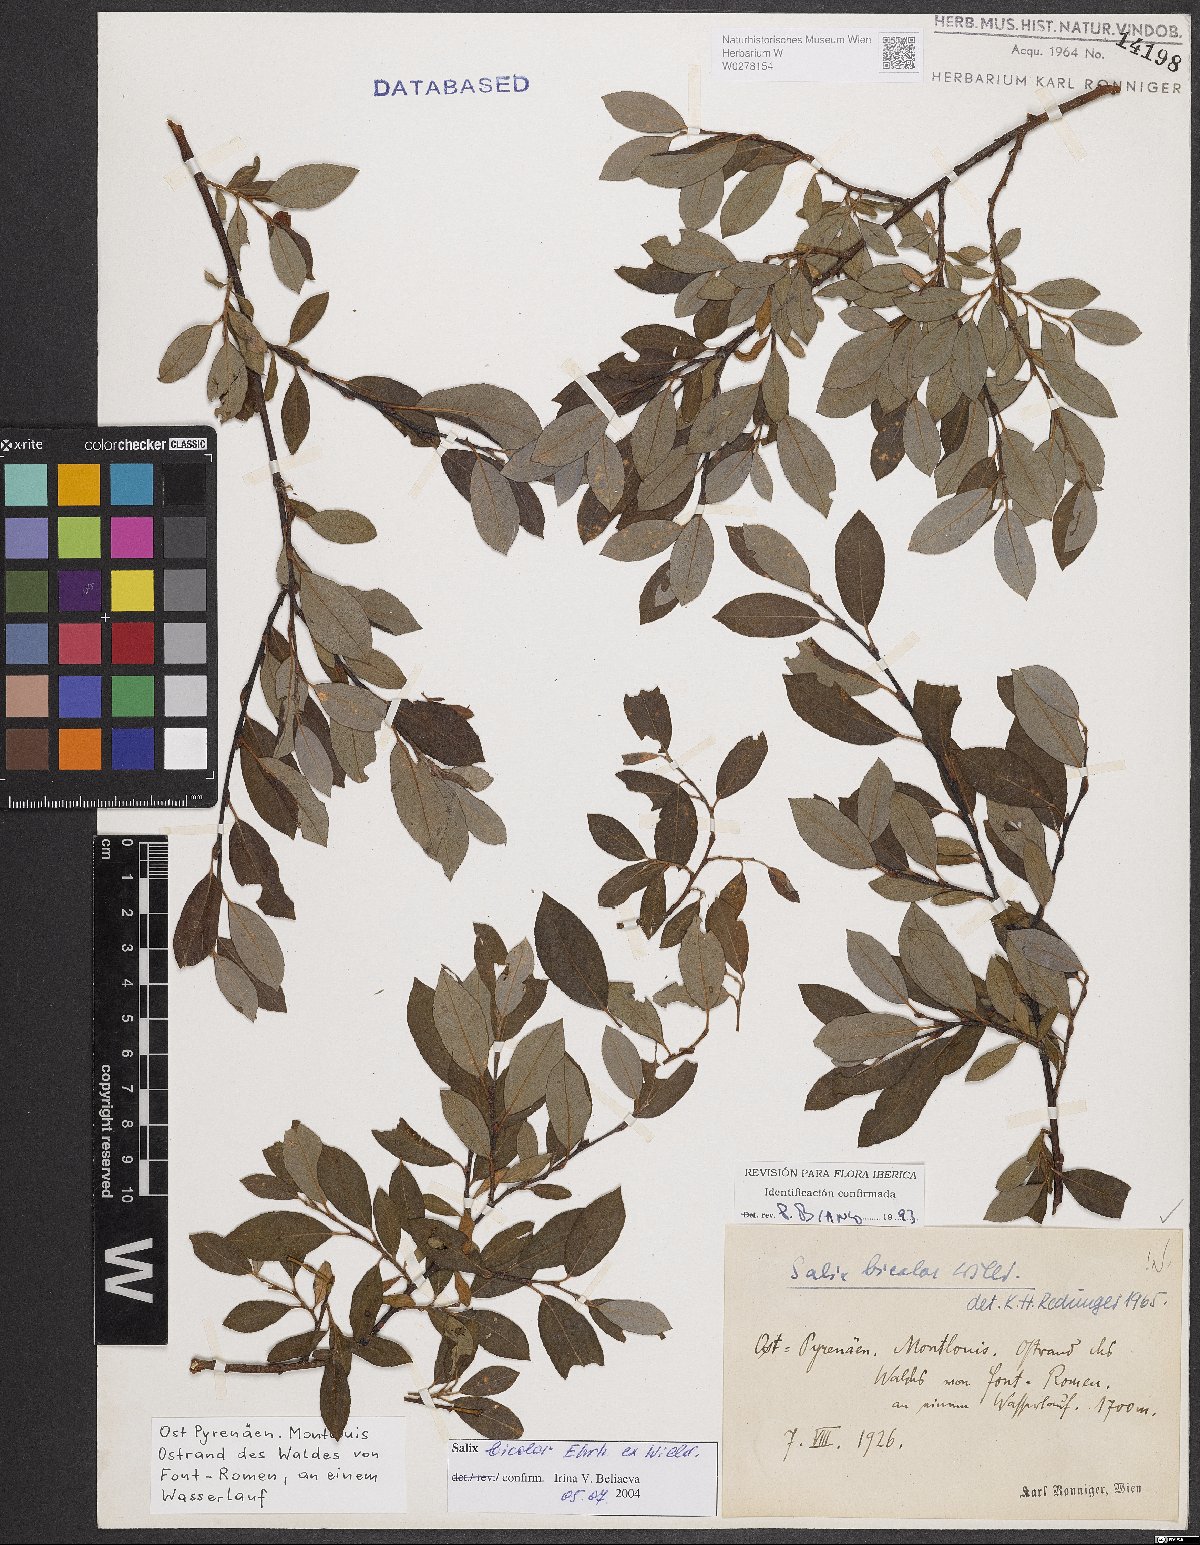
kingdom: Plantae
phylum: Tracheophyta
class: Magnoliopsida
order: Malpighiales
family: Salicaceae
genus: Salix
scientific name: Salix bicolor
